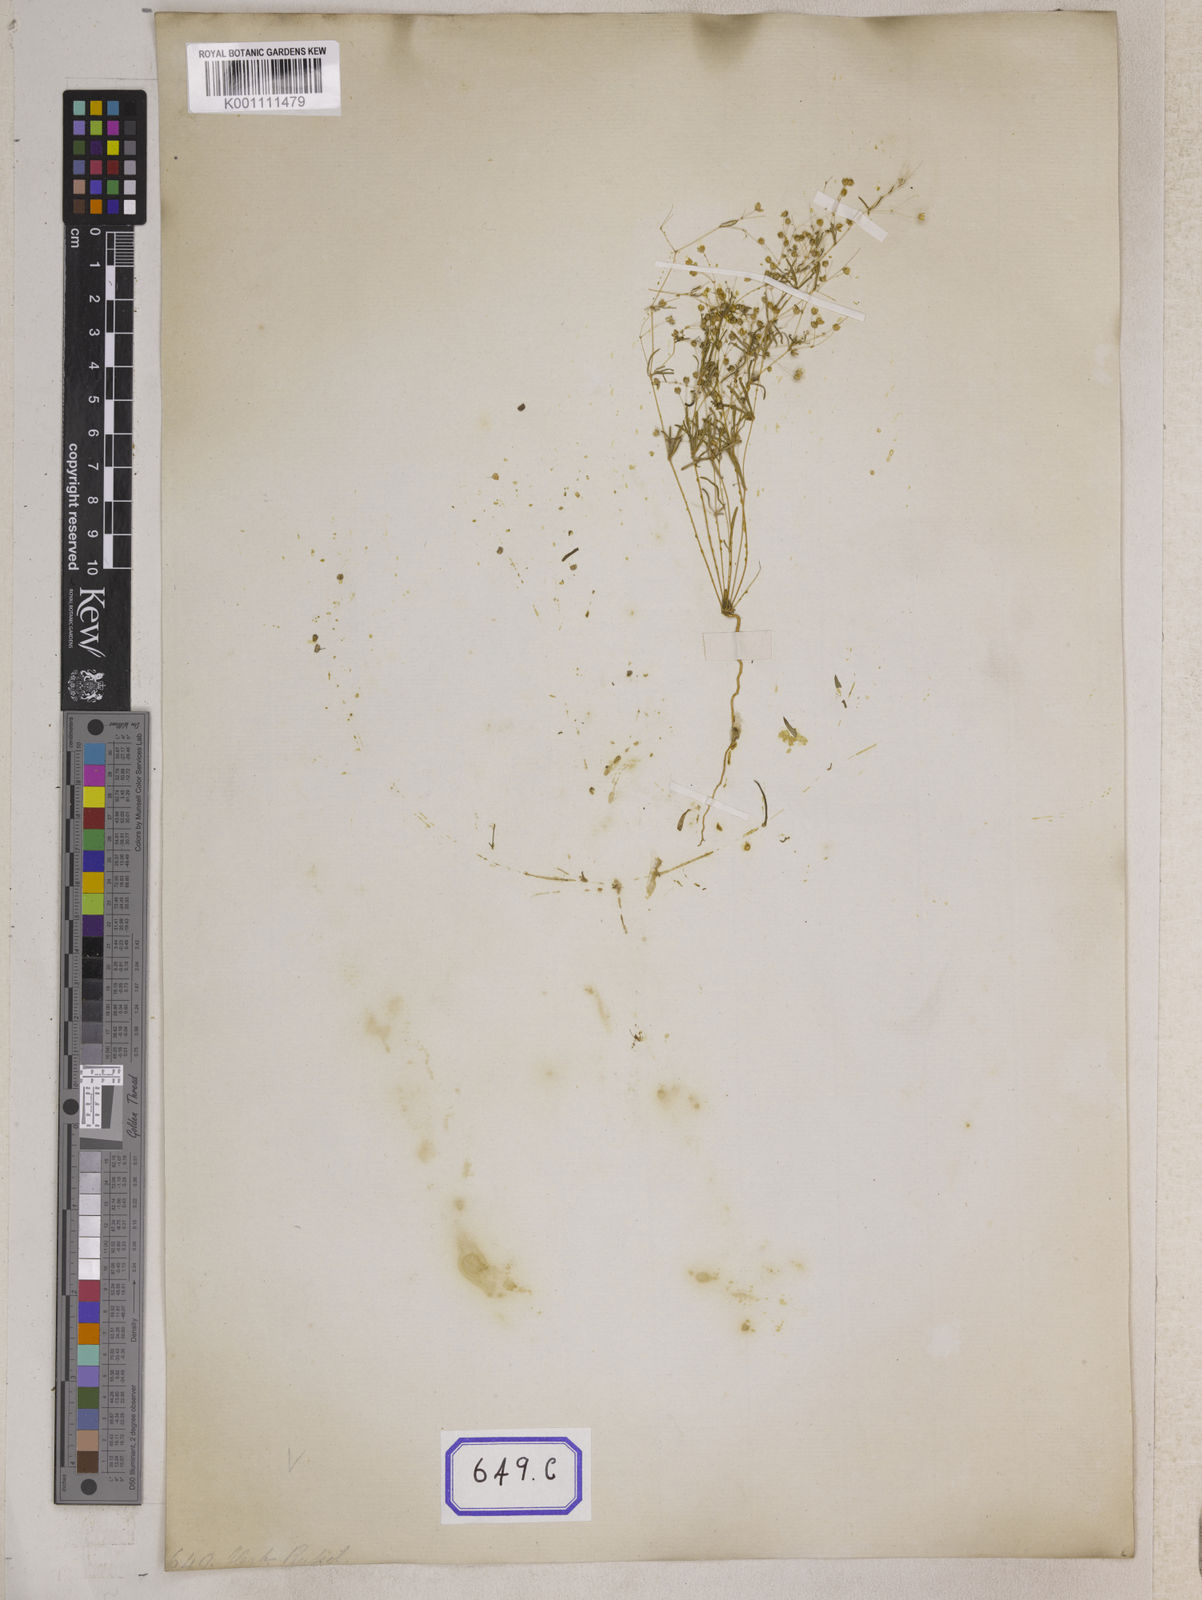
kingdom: Plantae
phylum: Tracheophyta
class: Magnoliopsida
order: Caryophyllales
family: Molluginaceae
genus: Trigastrotheca
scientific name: Trigastrotheca stricta
